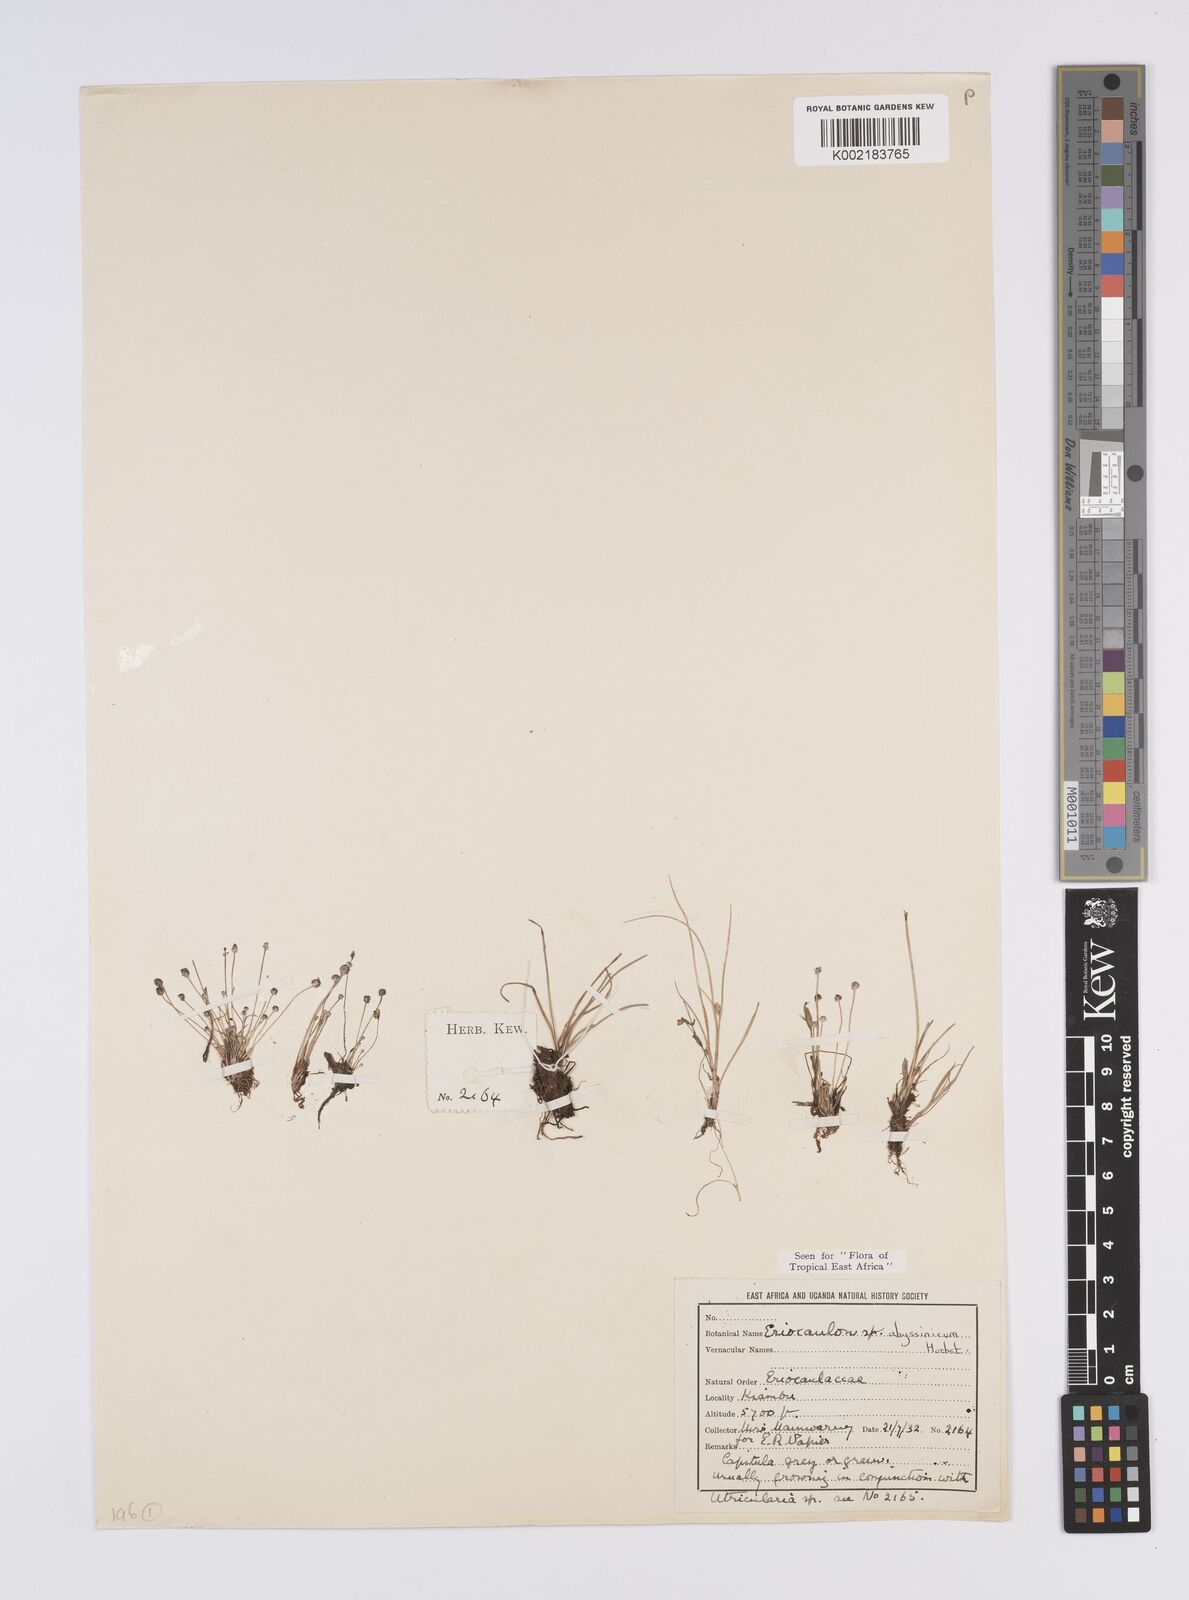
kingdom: Plantae
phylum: Tracheophyta
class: Liliopsida
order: Poales
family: Eriocaulaceae
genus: Eriocaulon
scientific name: Eriocaulon abyssinicum
